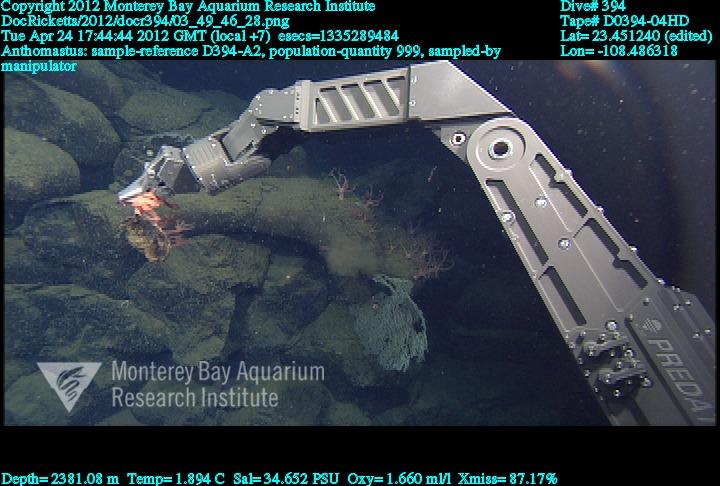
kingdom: Animalia
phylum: Cnidaria
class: Anthozoa
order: Scleralcyonacea
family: Coralliidae
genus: Heteropolypus
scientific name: Heteropolypus
